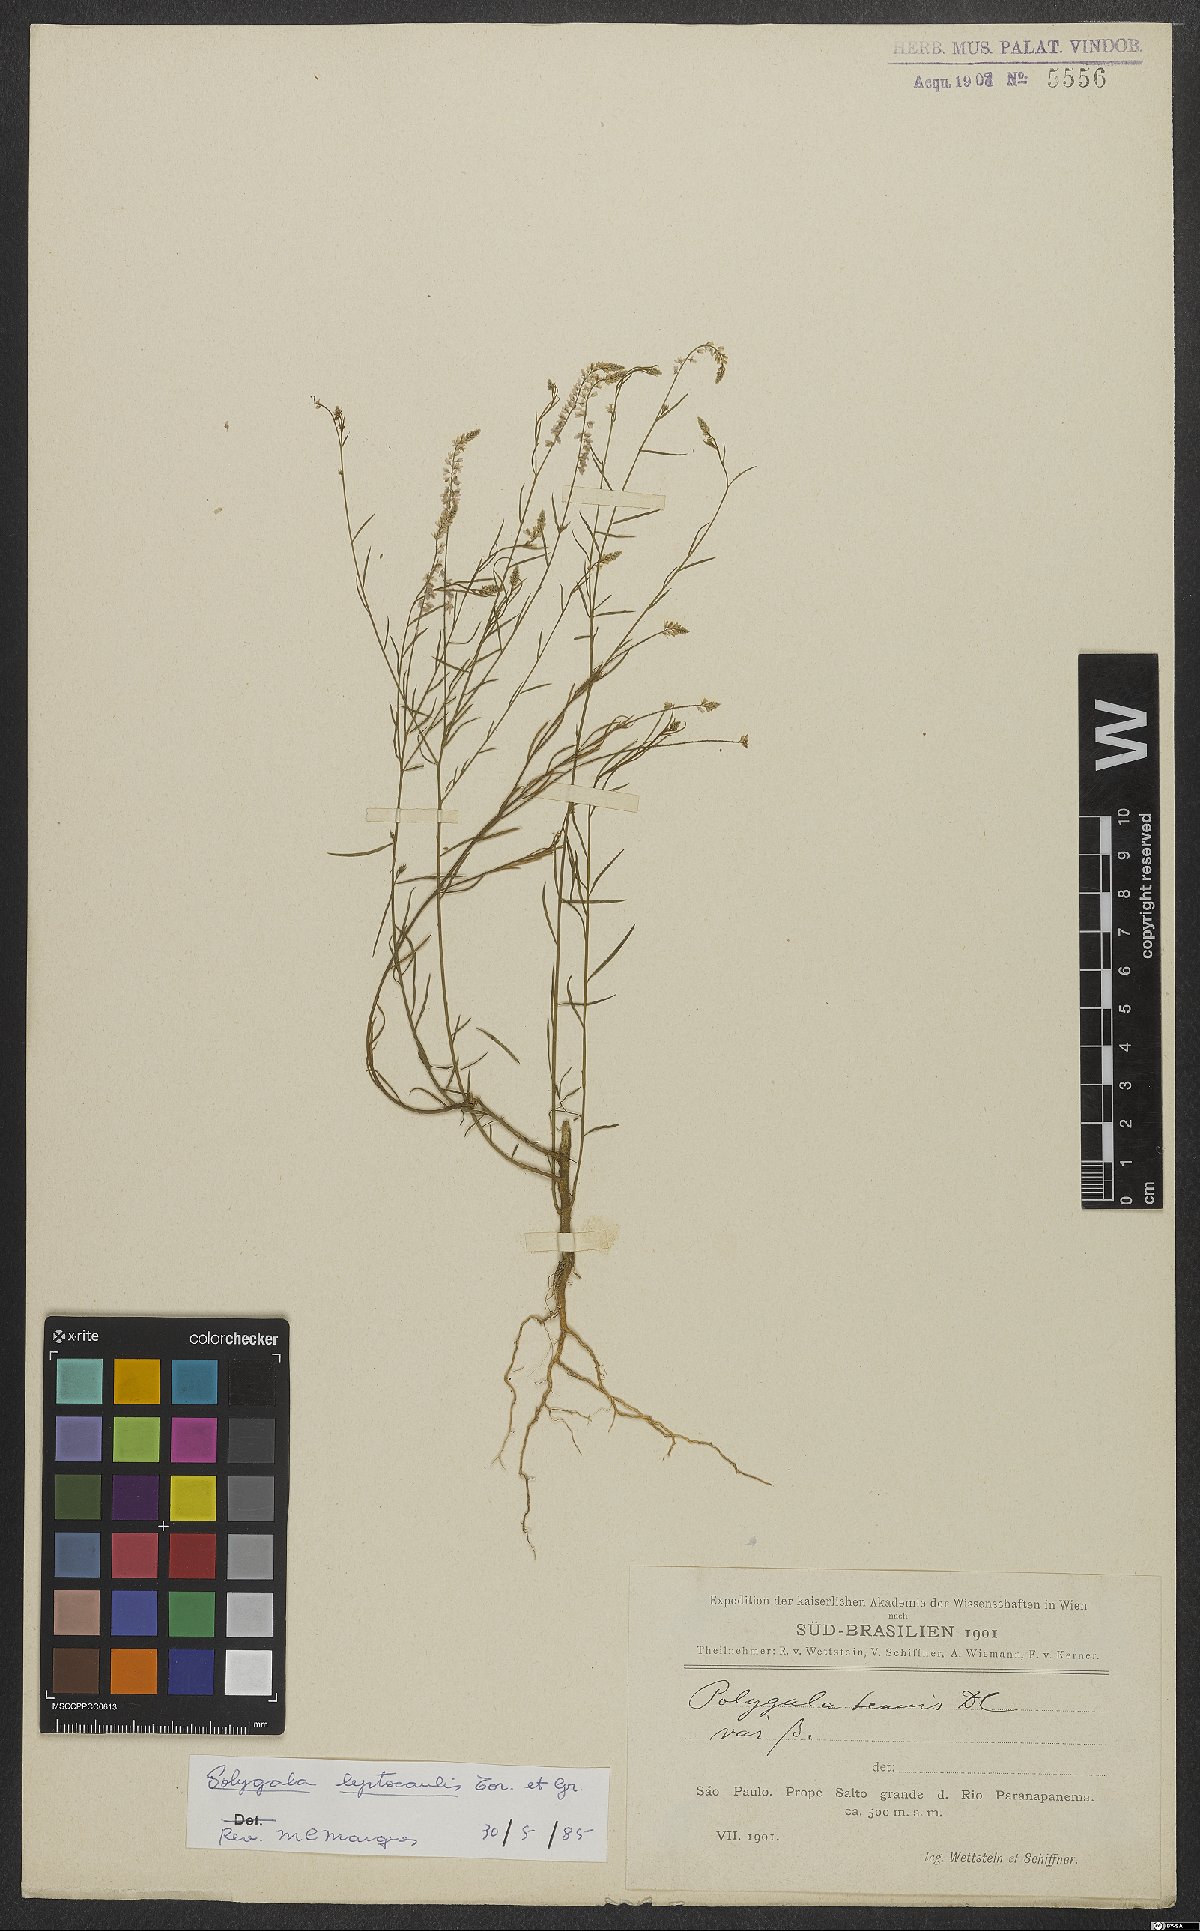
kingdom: Plantae
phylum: Tracheophyta
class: Magnoliopsida
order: Fabales
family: Polygalaceae
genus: Polygala
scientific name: Polygala tenella
